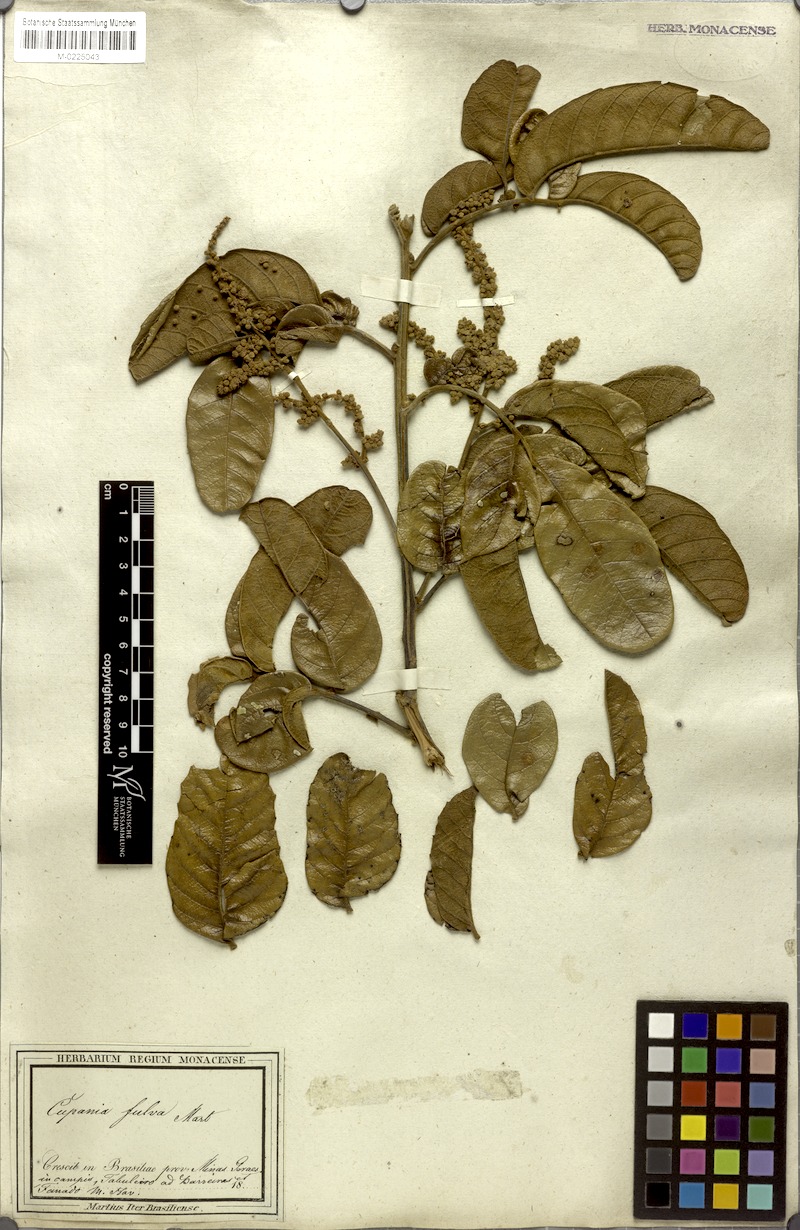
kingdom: Plantae
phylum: Tracheophyta
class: Magnoliopsida
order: Sapindales
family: Sapindaceae
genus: Cupania
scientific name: Cupania paniculata
